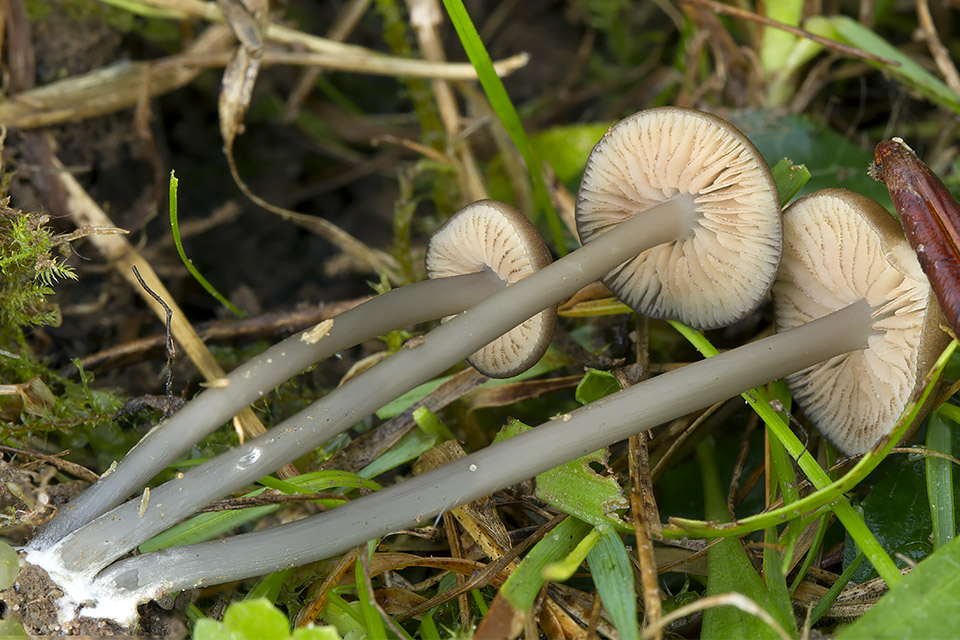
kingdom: Fungi
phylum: Basidiomycota
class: Agaricomycetes
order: Agaricales
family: Entolomataceae
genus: Entoloma
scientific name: Entoloma allospermum
